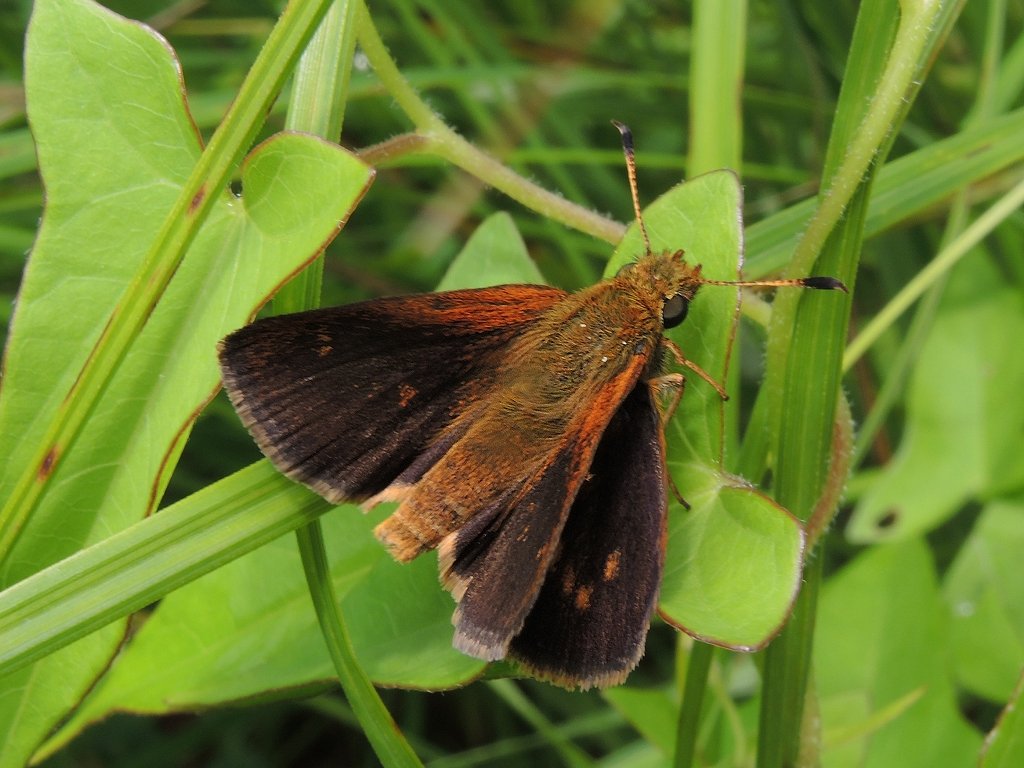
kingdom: Animalia
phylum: Arthropoda
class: Insecta
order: Lepidoptera
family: Hesperiidae
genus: Poanes
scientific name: Poanes massasoit
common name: Mulberry Wing
